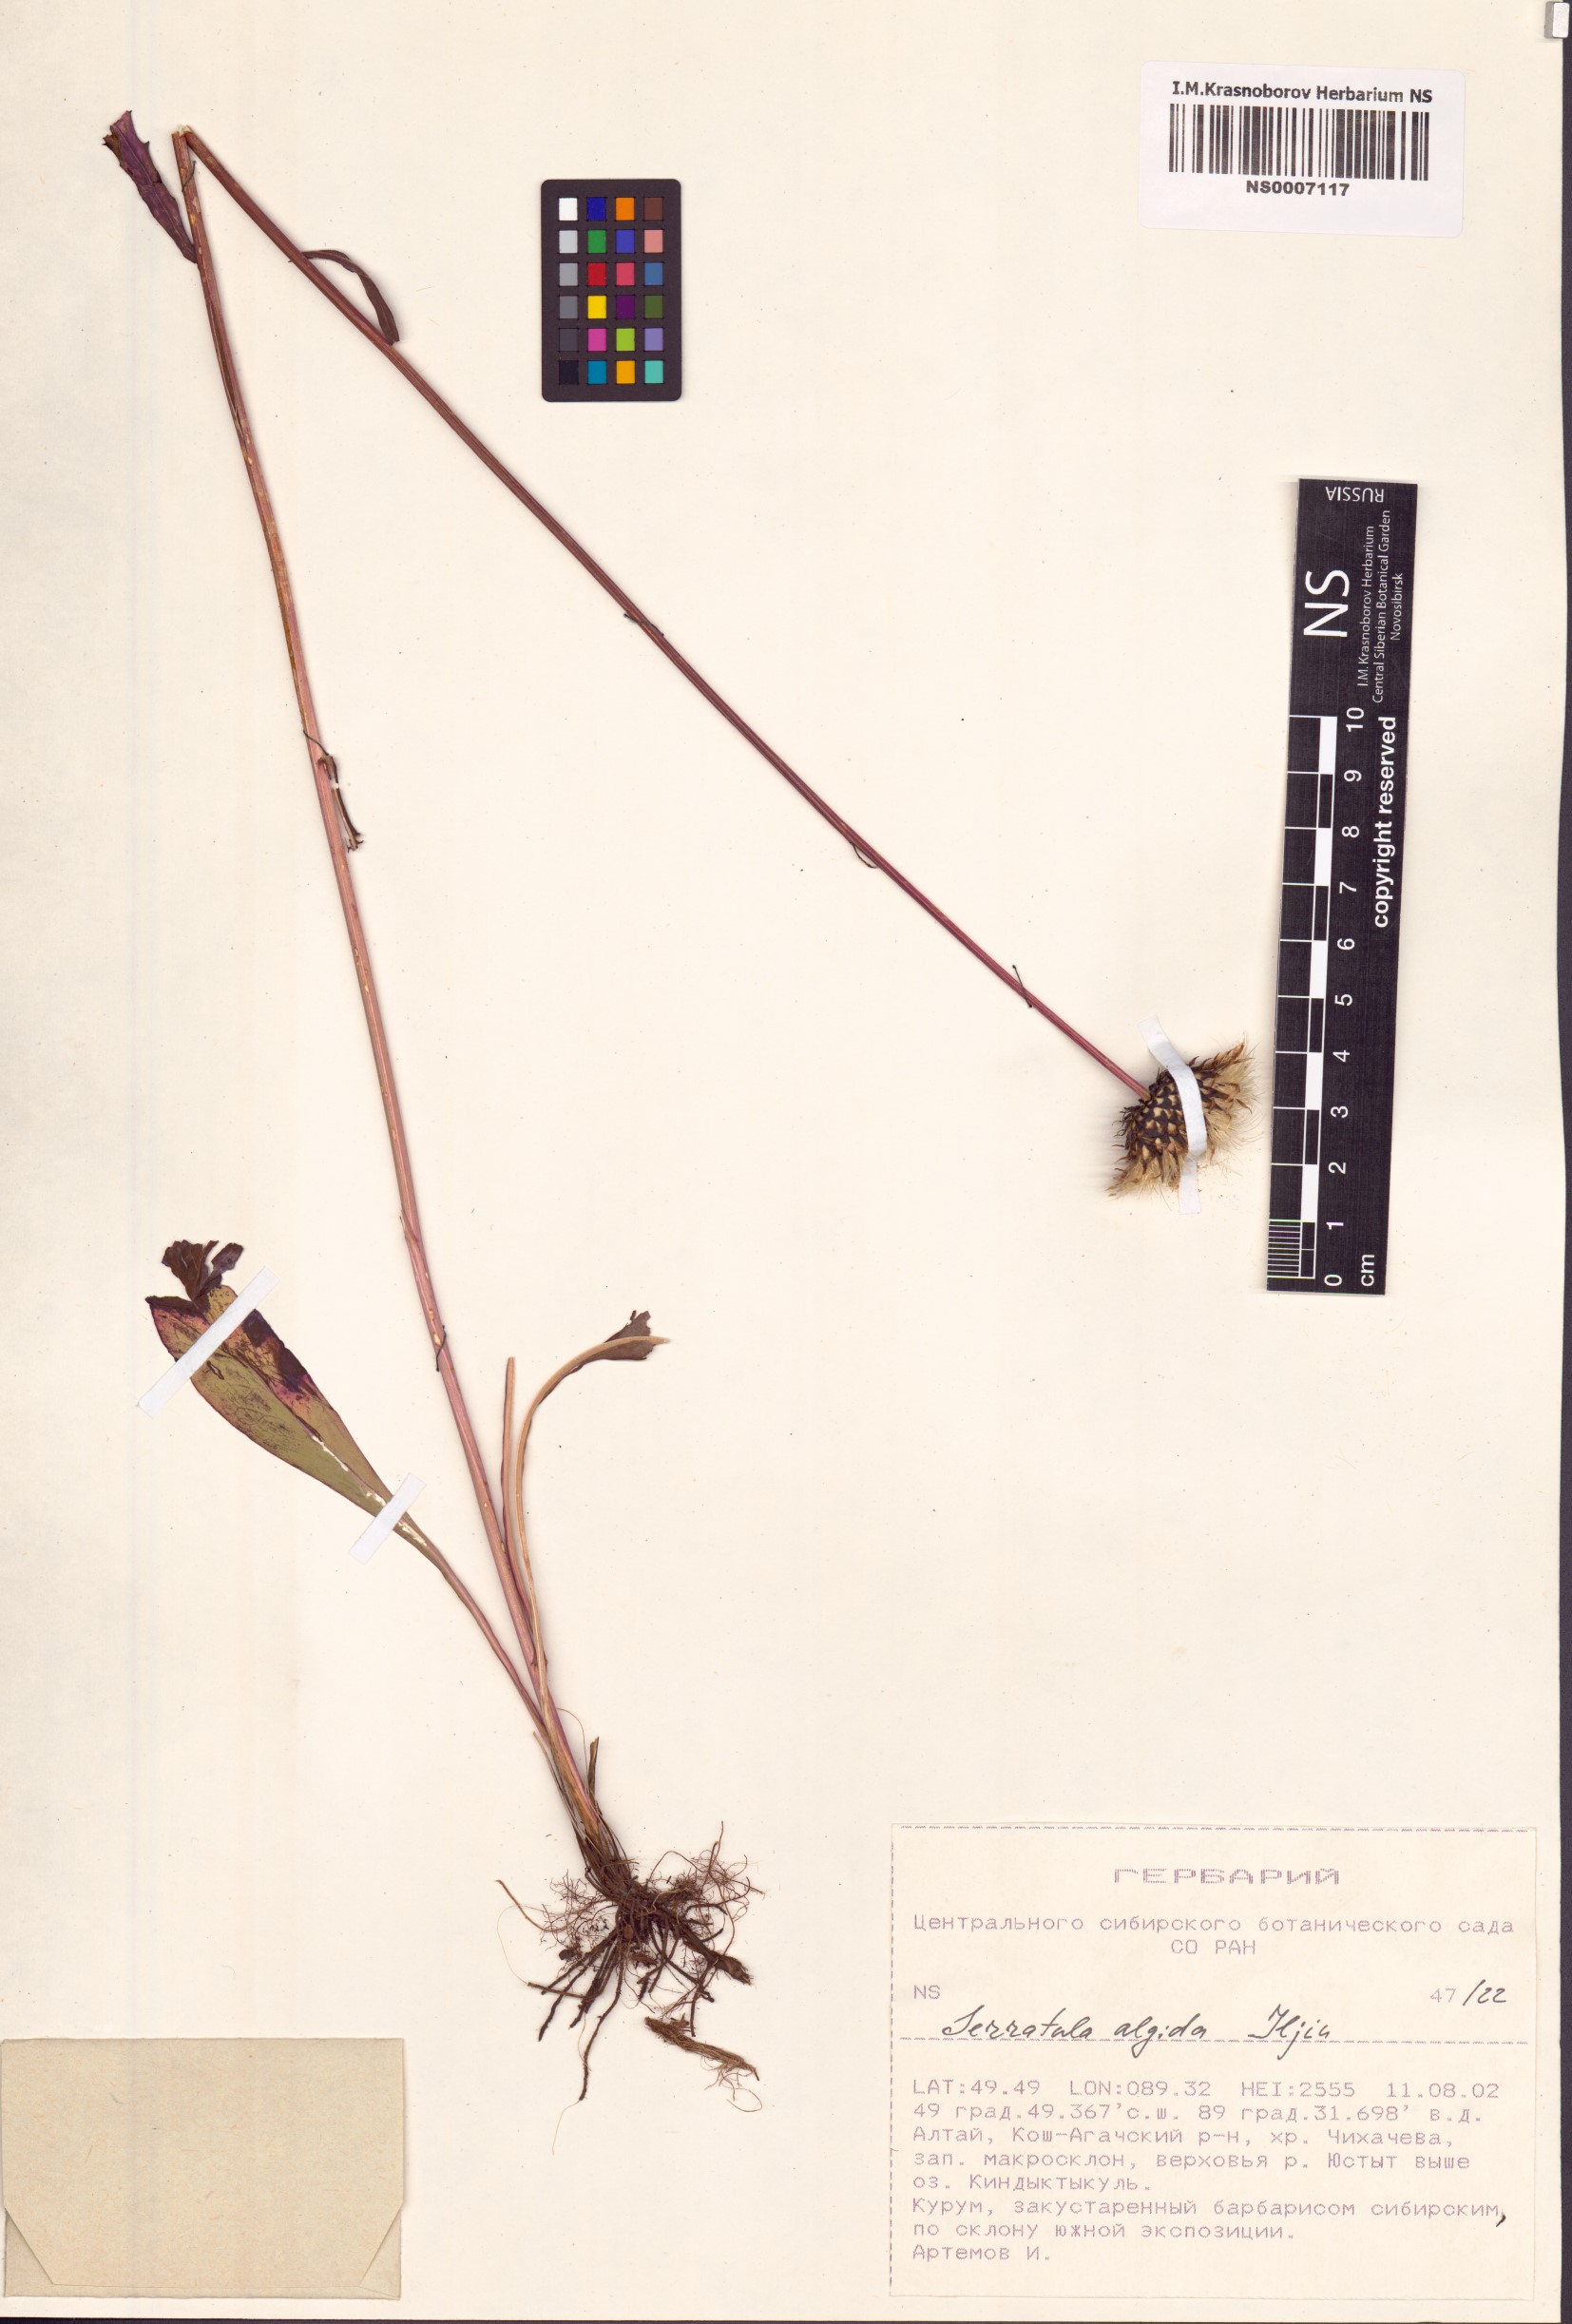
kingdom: Plantae
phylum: Tracheophyta
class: Magnoliopsida
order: Asterales
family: Asteraceae
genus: Klasea
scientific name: Klasea marginata
